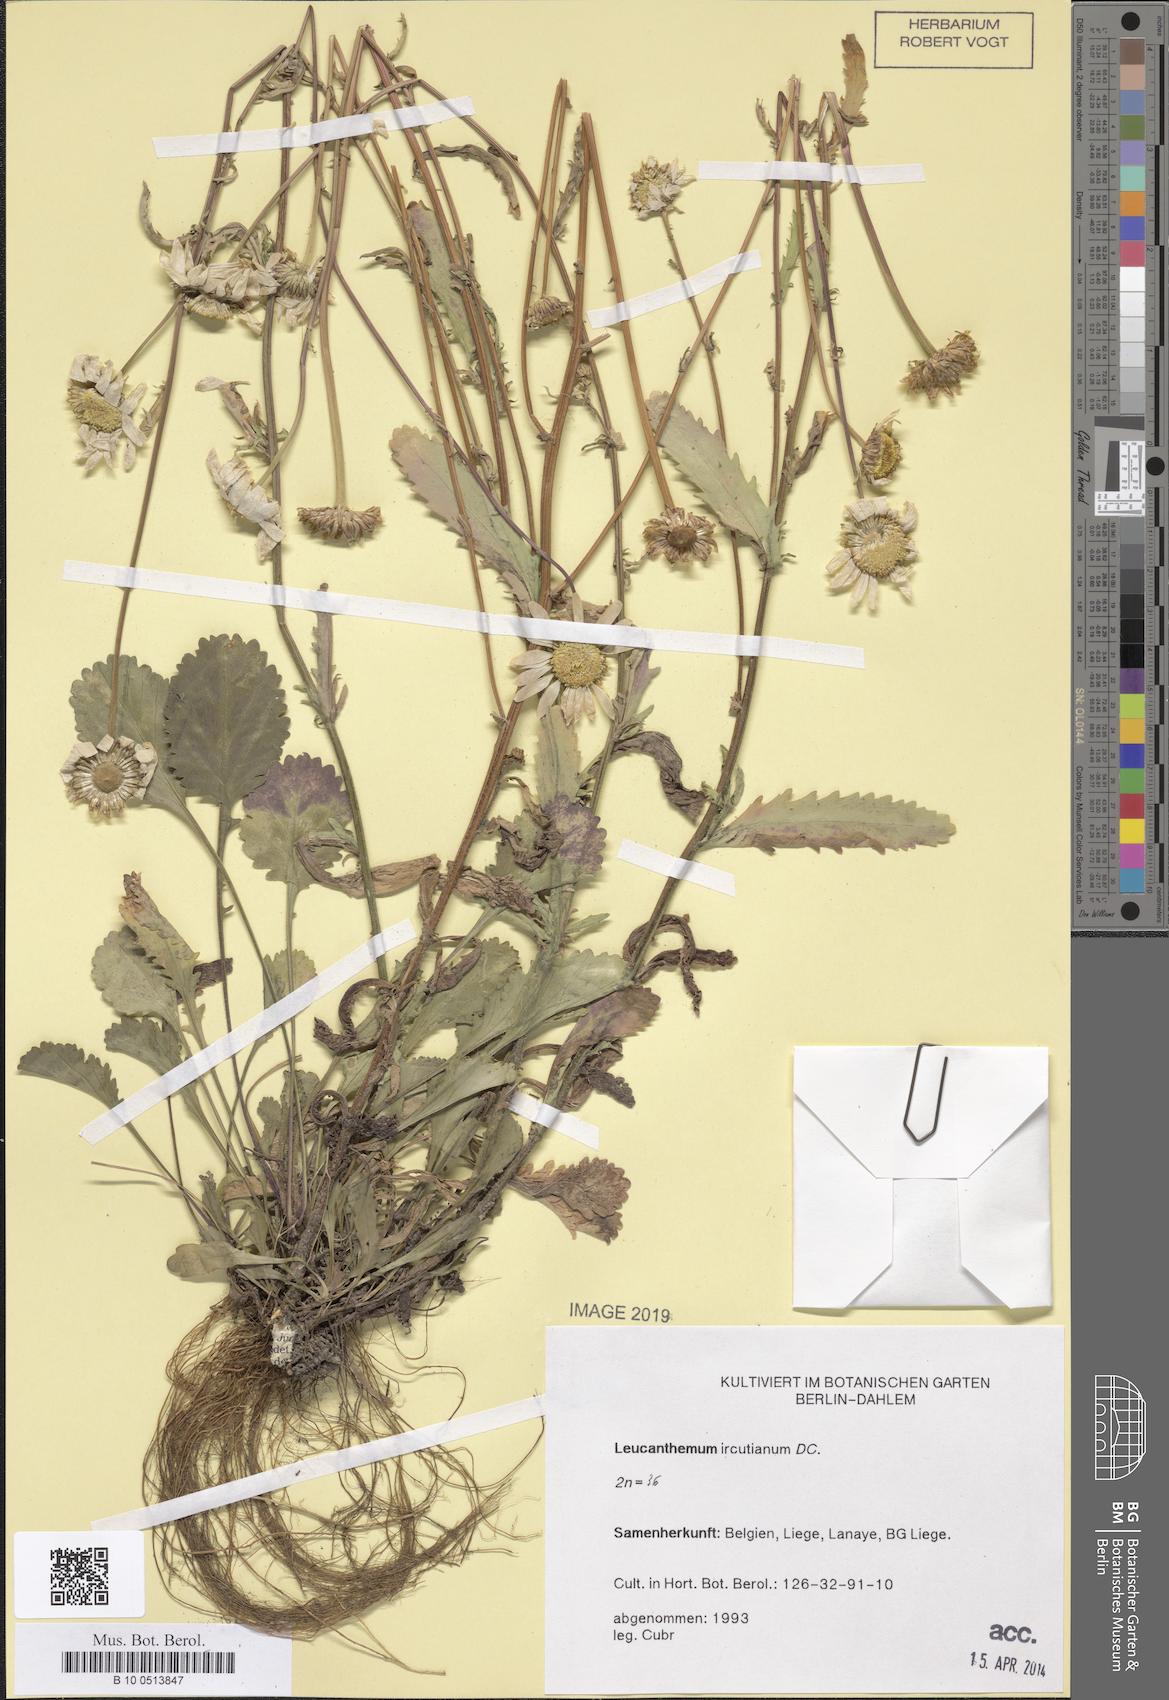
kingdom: Plantae
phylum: Tracheophyta
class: Magnoliopsida
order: Asterales
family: Asteraceae
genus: Leucanthemum
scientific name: Leucanthemum ircutianum
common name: Daisy
